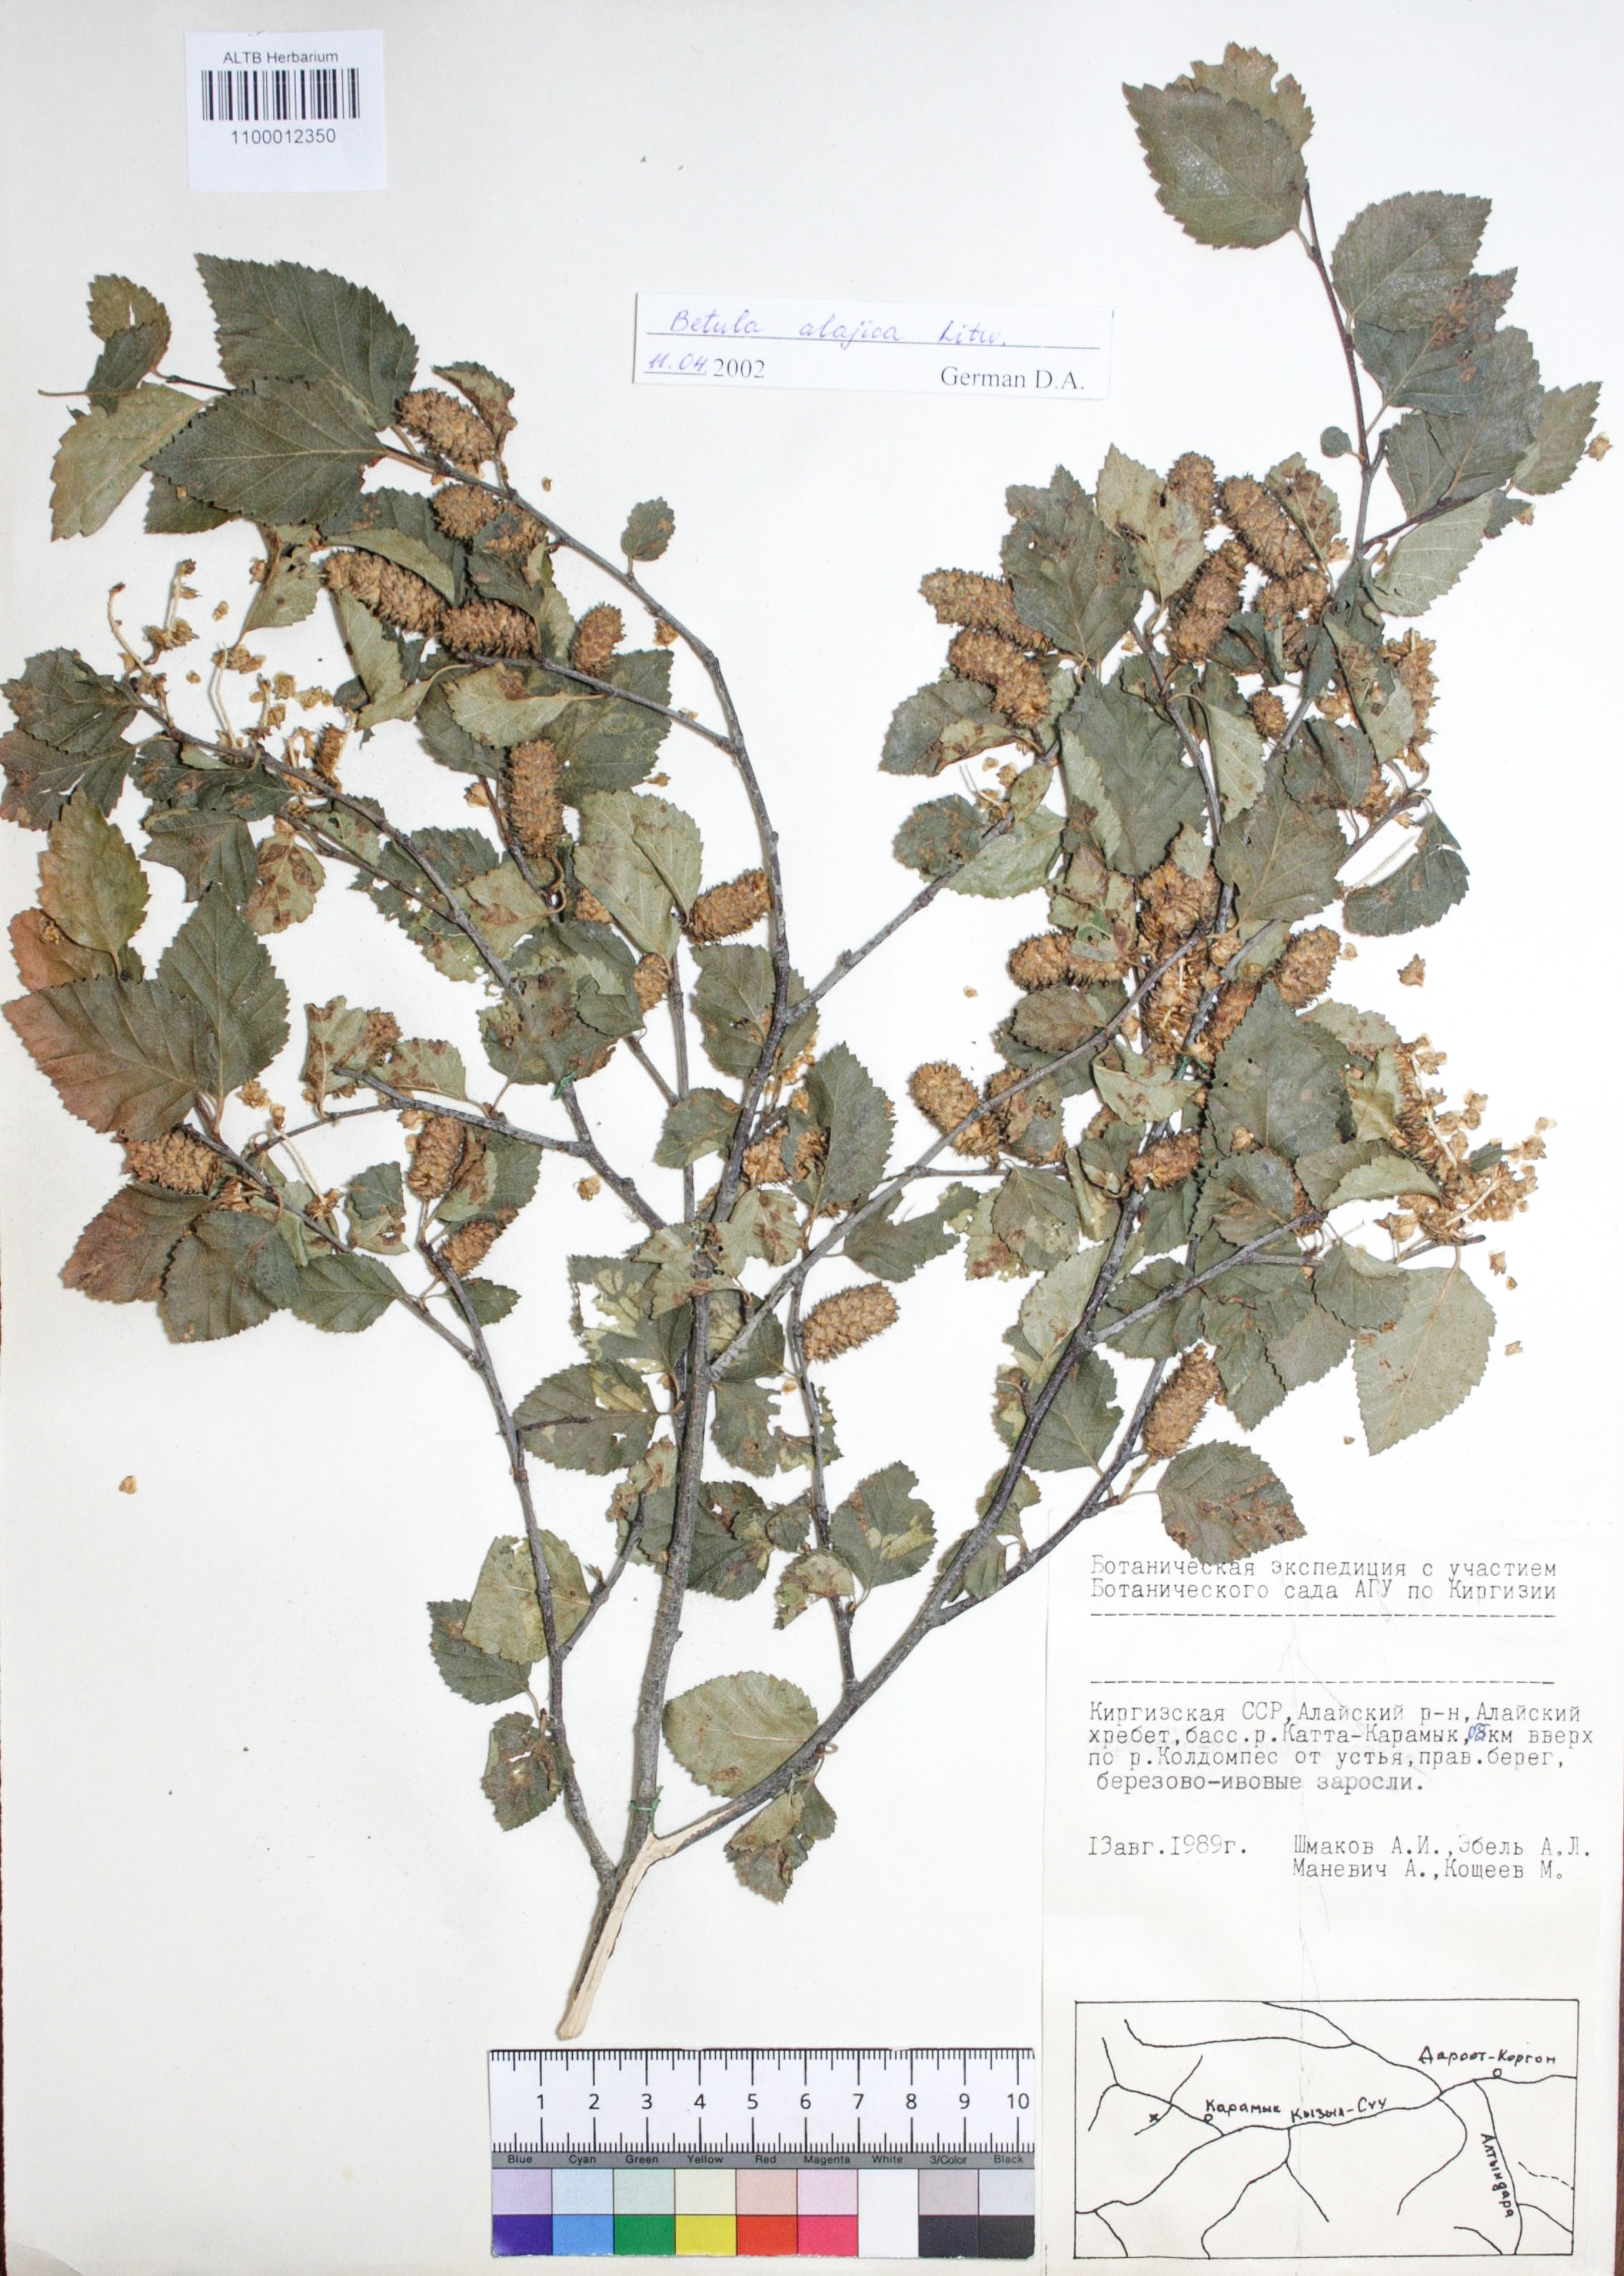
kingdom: Plantae
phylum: Tracheophyta
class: Magnoliopsida
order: Fagales
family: Betulaceae
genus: Betula
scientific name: Betula tianschanica
